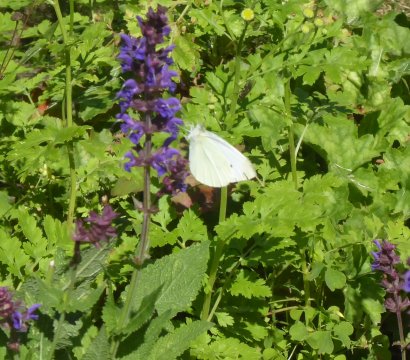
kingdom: Animalia
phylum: Arthropoda
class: Insecta
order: Lepidoptera
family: Pieridae
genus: Pieris
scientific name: Pieris rapae
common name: Cabbage White
